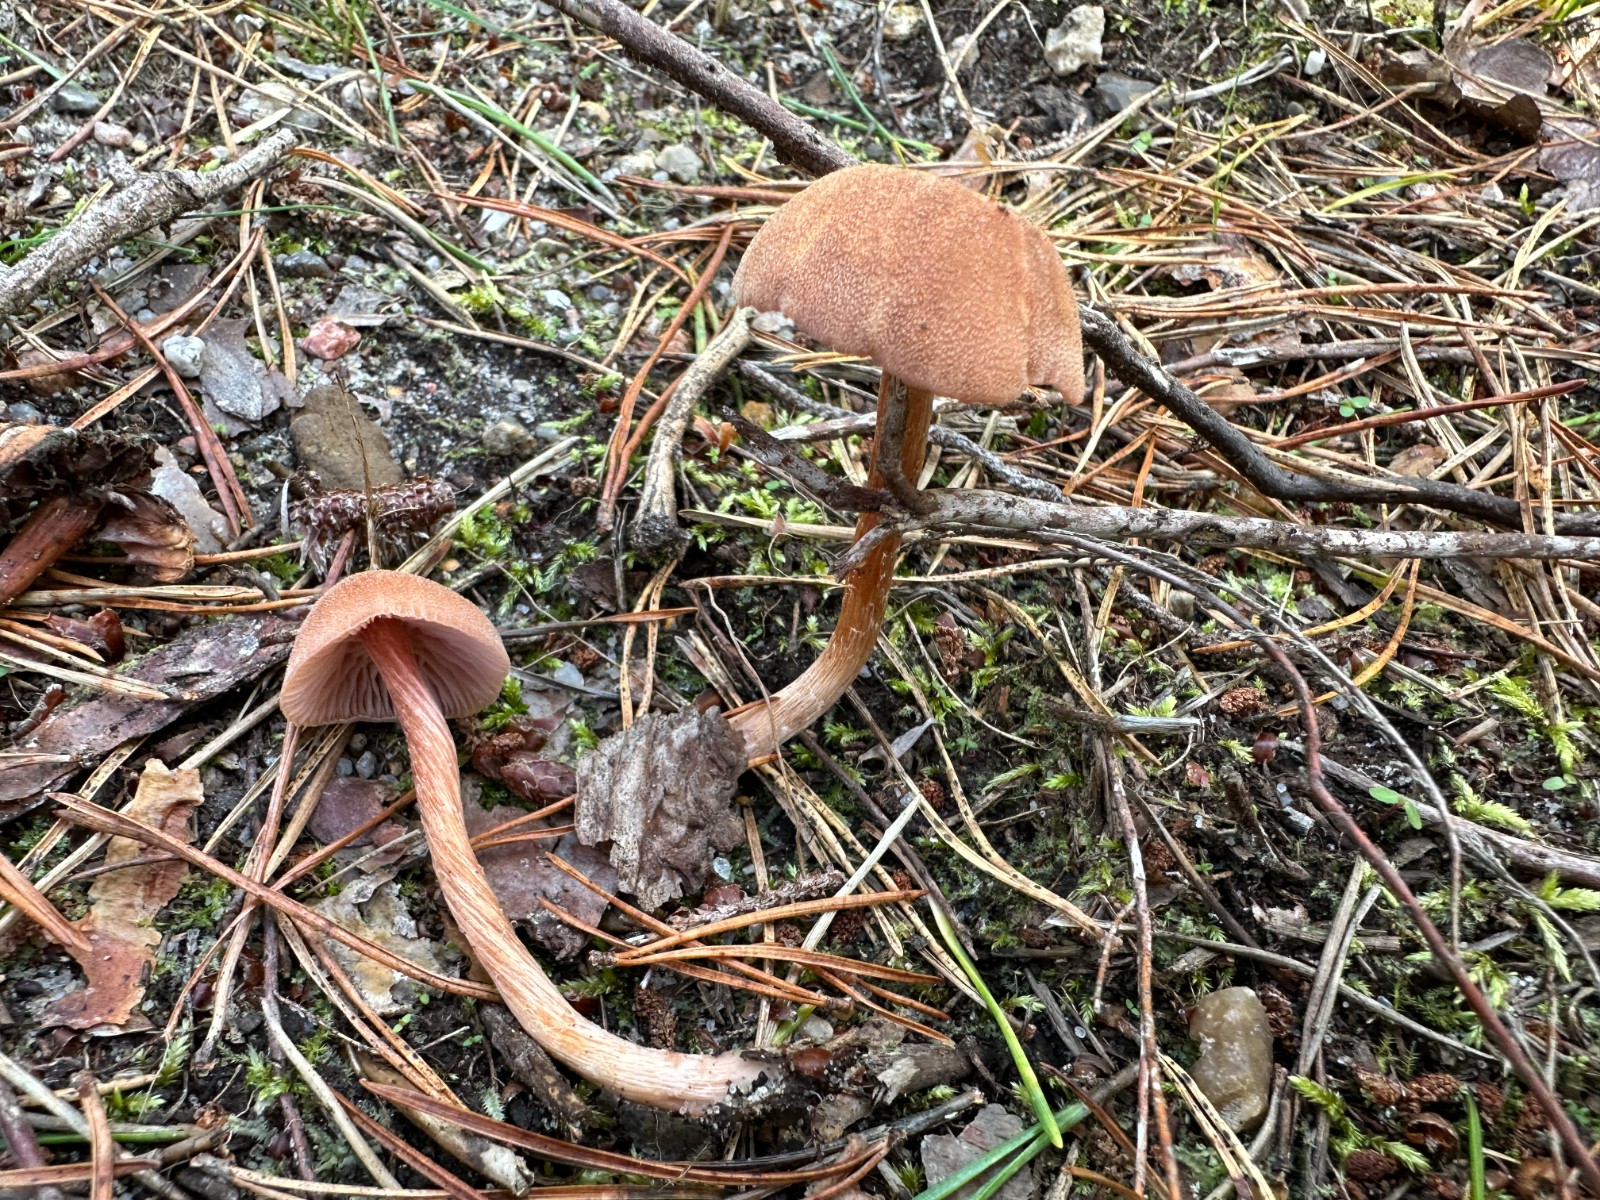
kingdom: Fungi
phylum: Basidiomycota
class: Agaricomycetes
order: Agaricales
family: Hydnangiaceae
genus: Laccaria
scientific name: Laccaria proxima
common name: stor ametysthat
